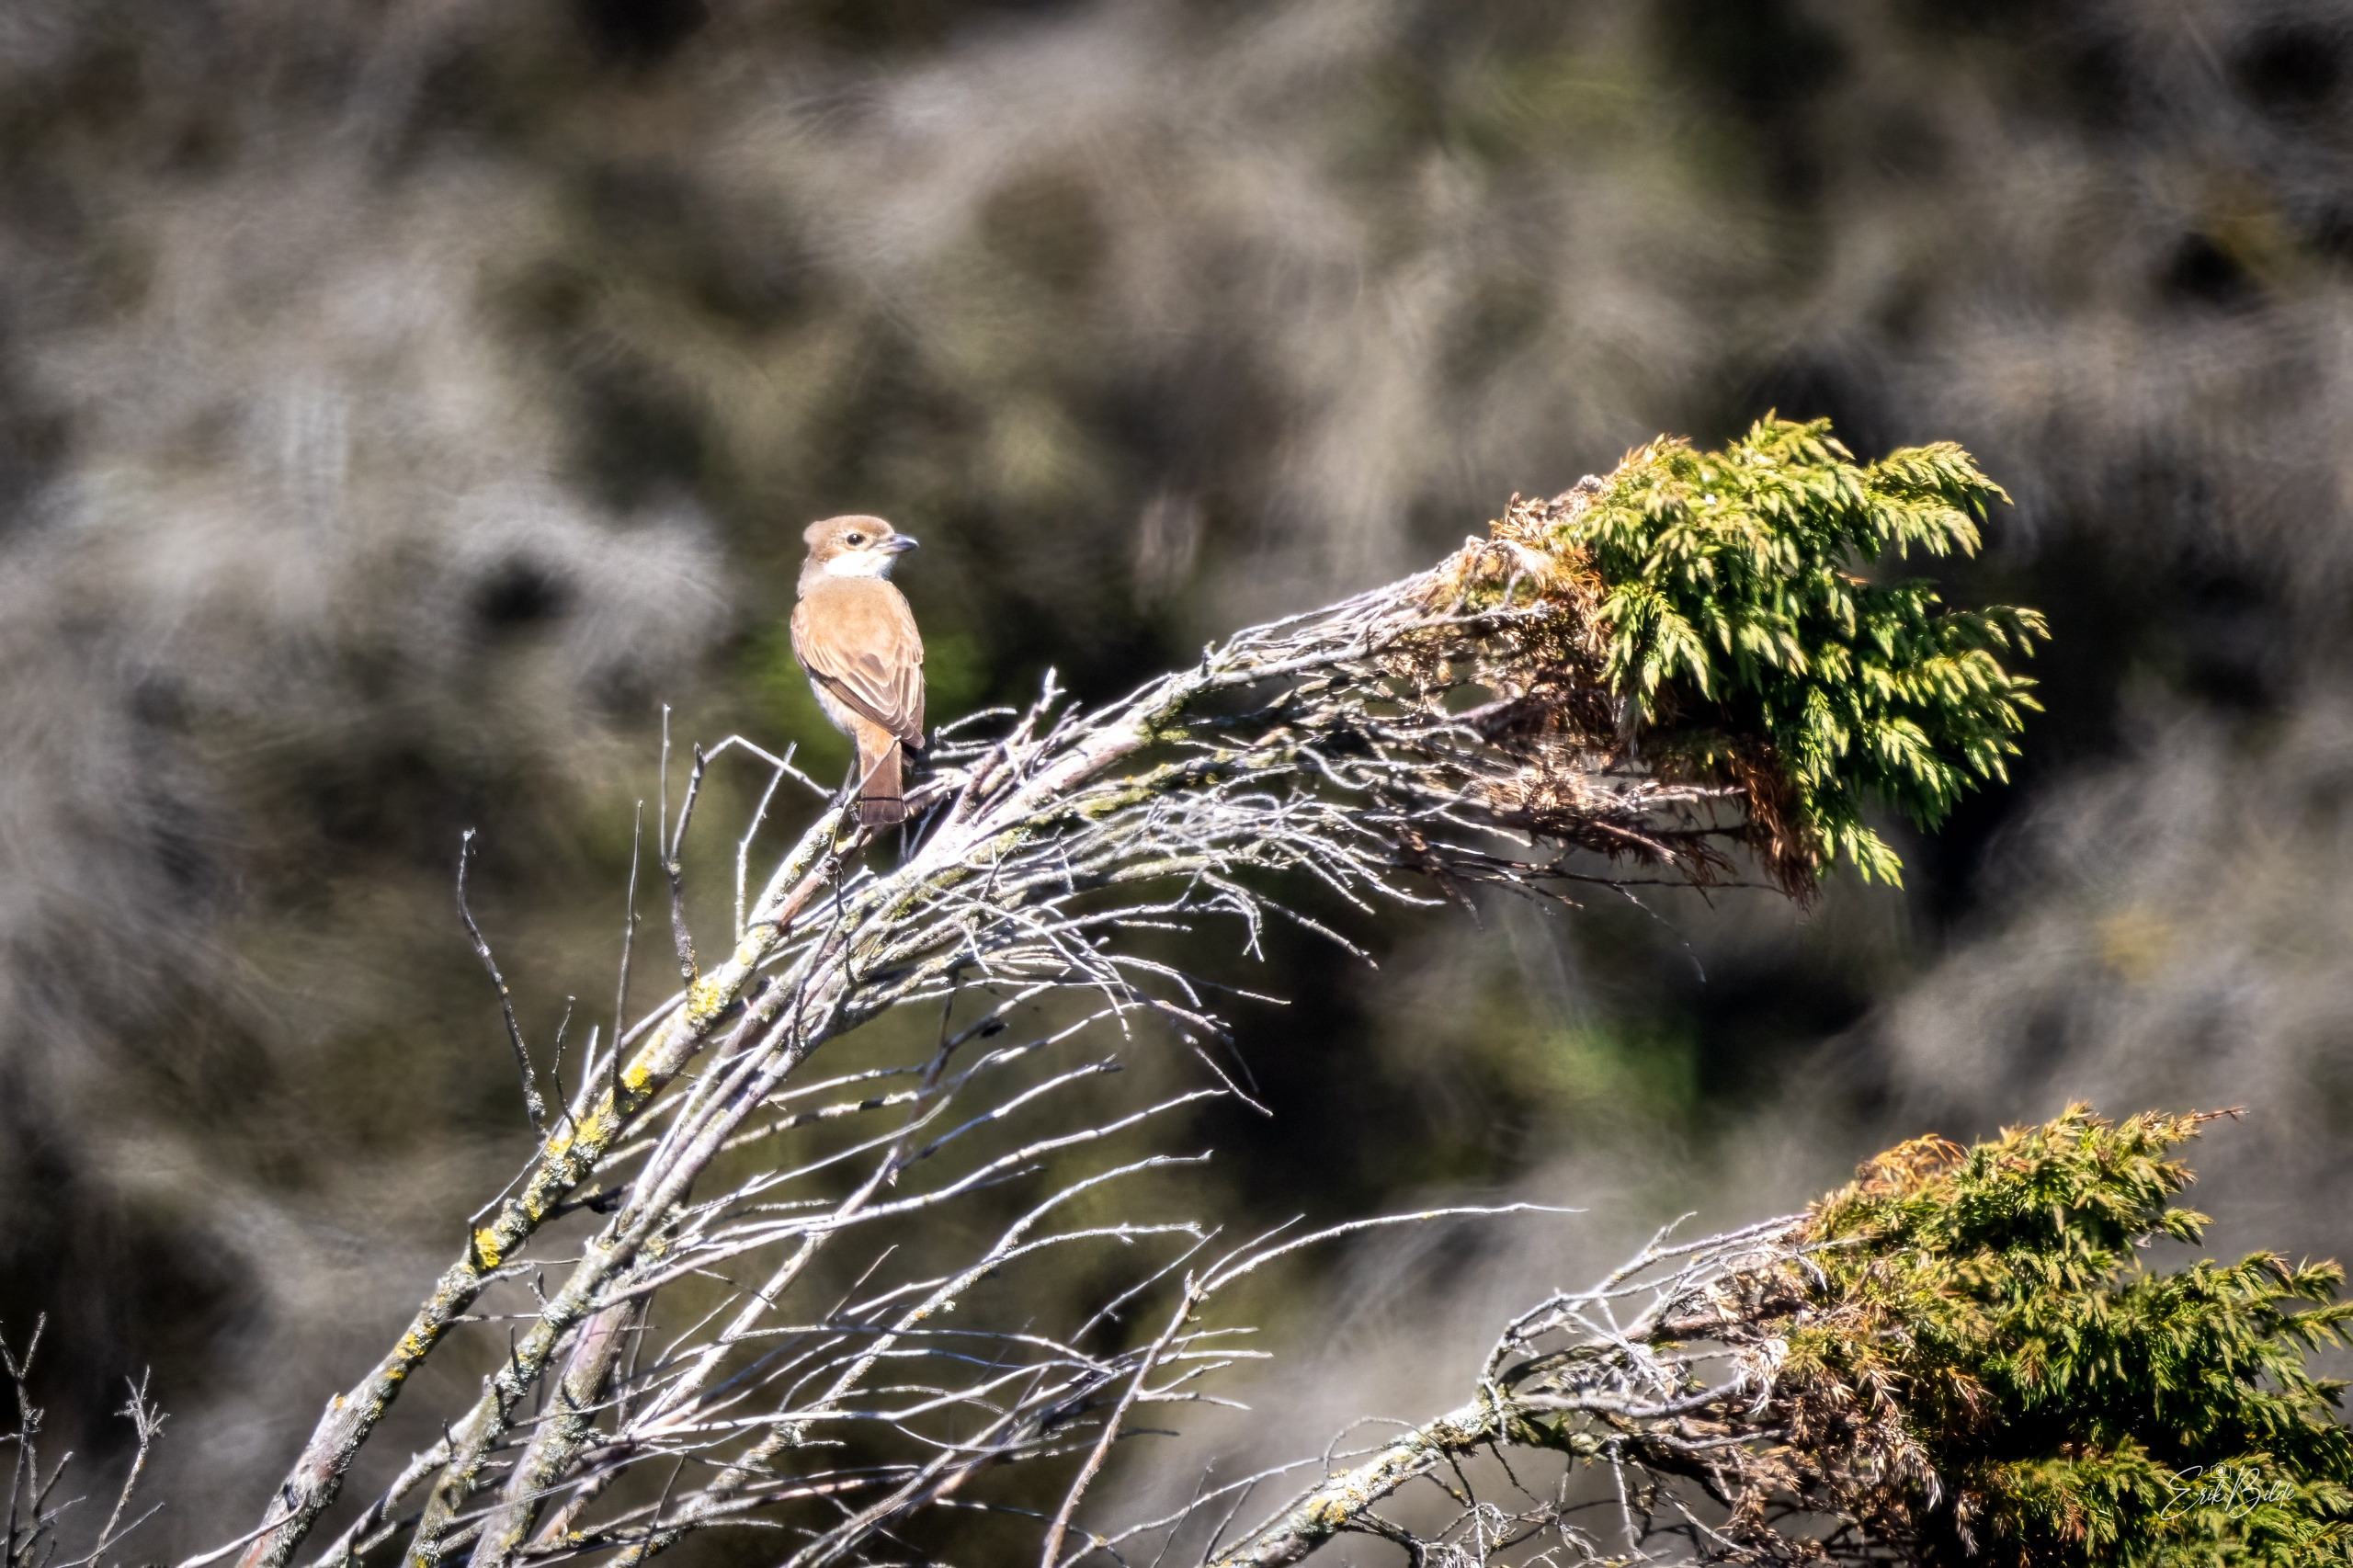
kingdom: Animalia
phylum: Chordata
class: Aves
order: Passeriformes
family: Laniidae
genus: Lanius
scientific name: Lanius collurio
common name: Rødrygget tornskade
